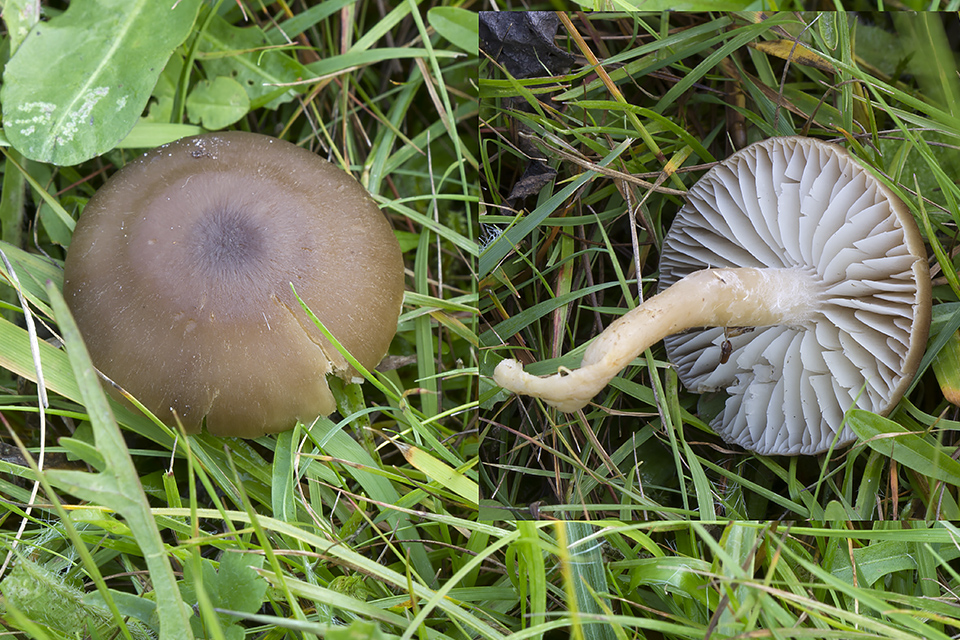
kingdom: Fungi
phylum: Basidiomycota
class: Agaricomycetes
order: Agaricales
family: Hygrophoraceae
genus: Neohygrocybe
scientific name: Neohygrocybe nitrata
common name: stinkende vokshat
